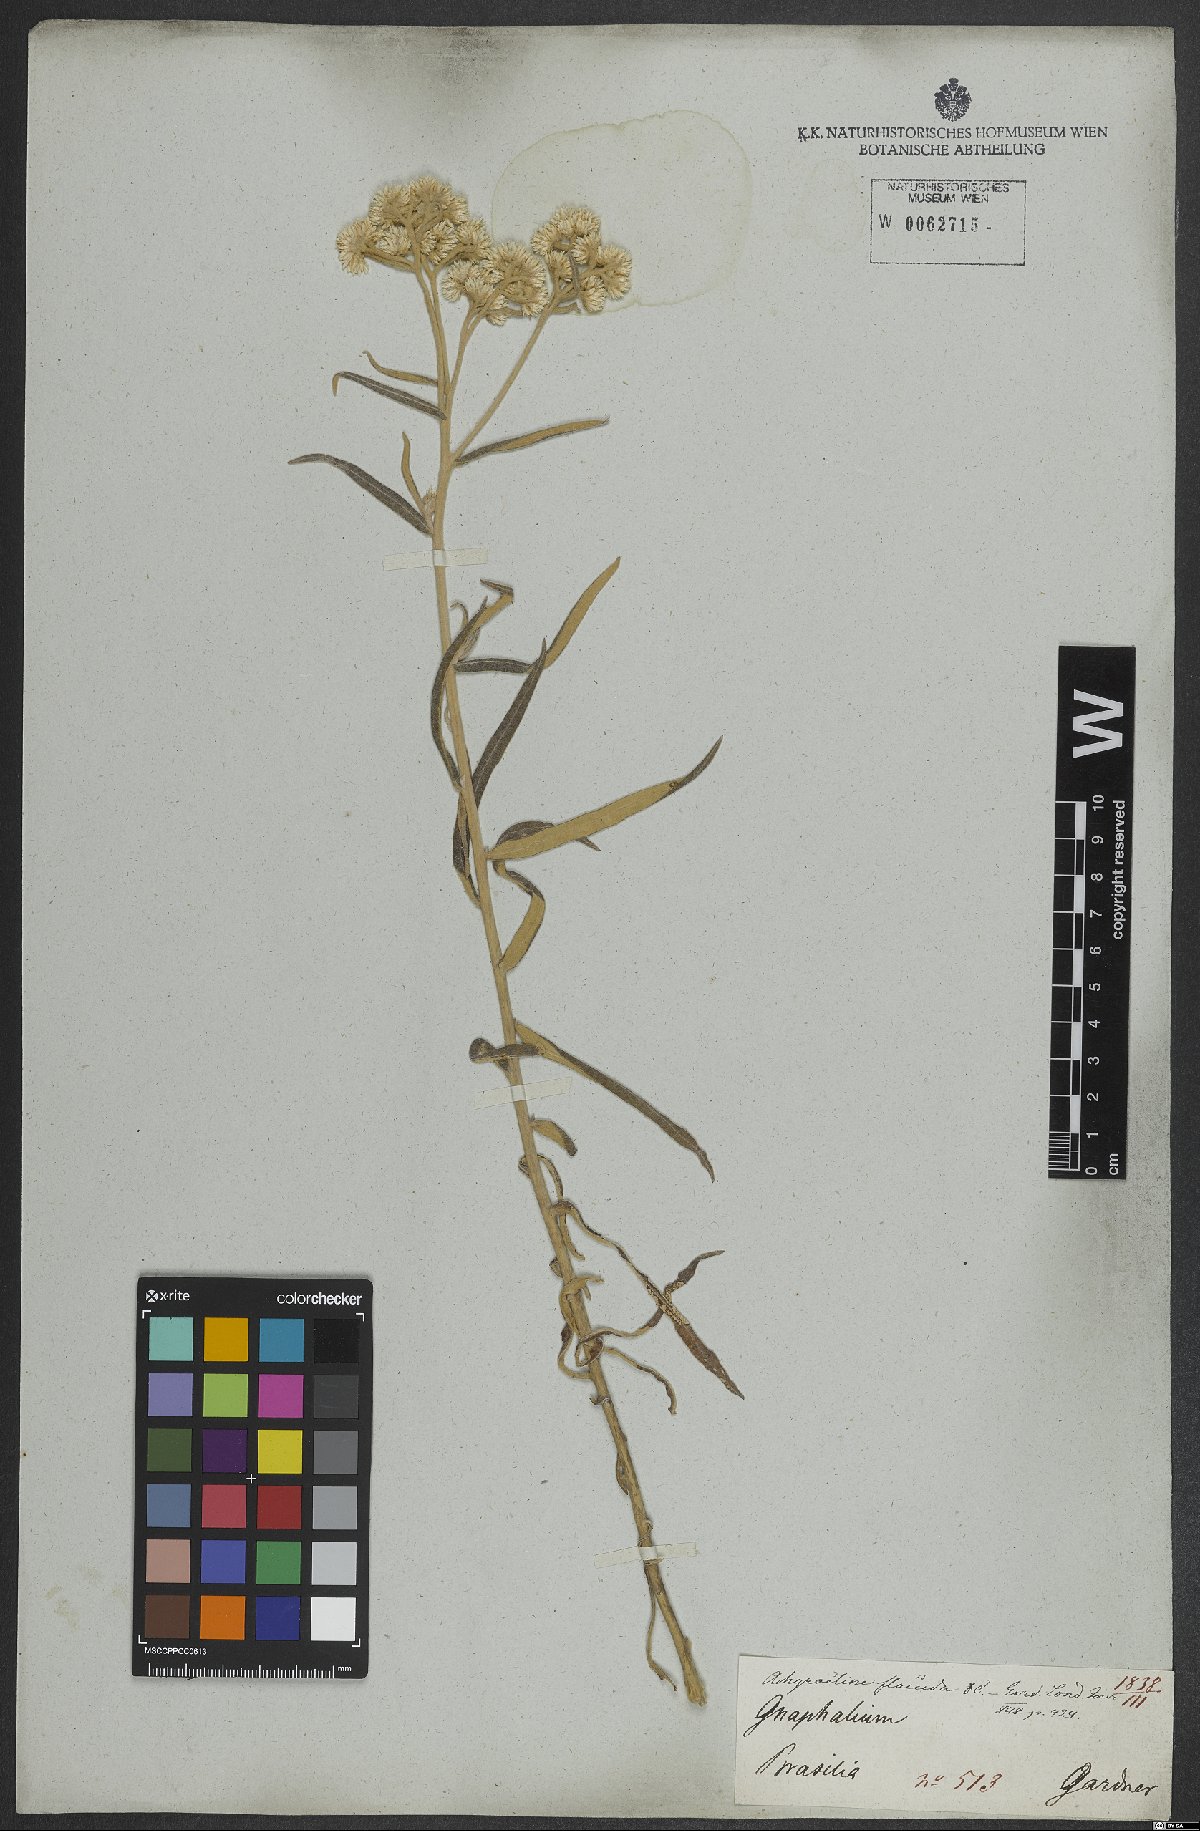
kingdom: Plantae
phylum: Tracheophyta
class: Magnoliopsida
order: Asterales
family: Asteraceae
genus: Achyrocline
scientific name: Achyrocline flaccida
